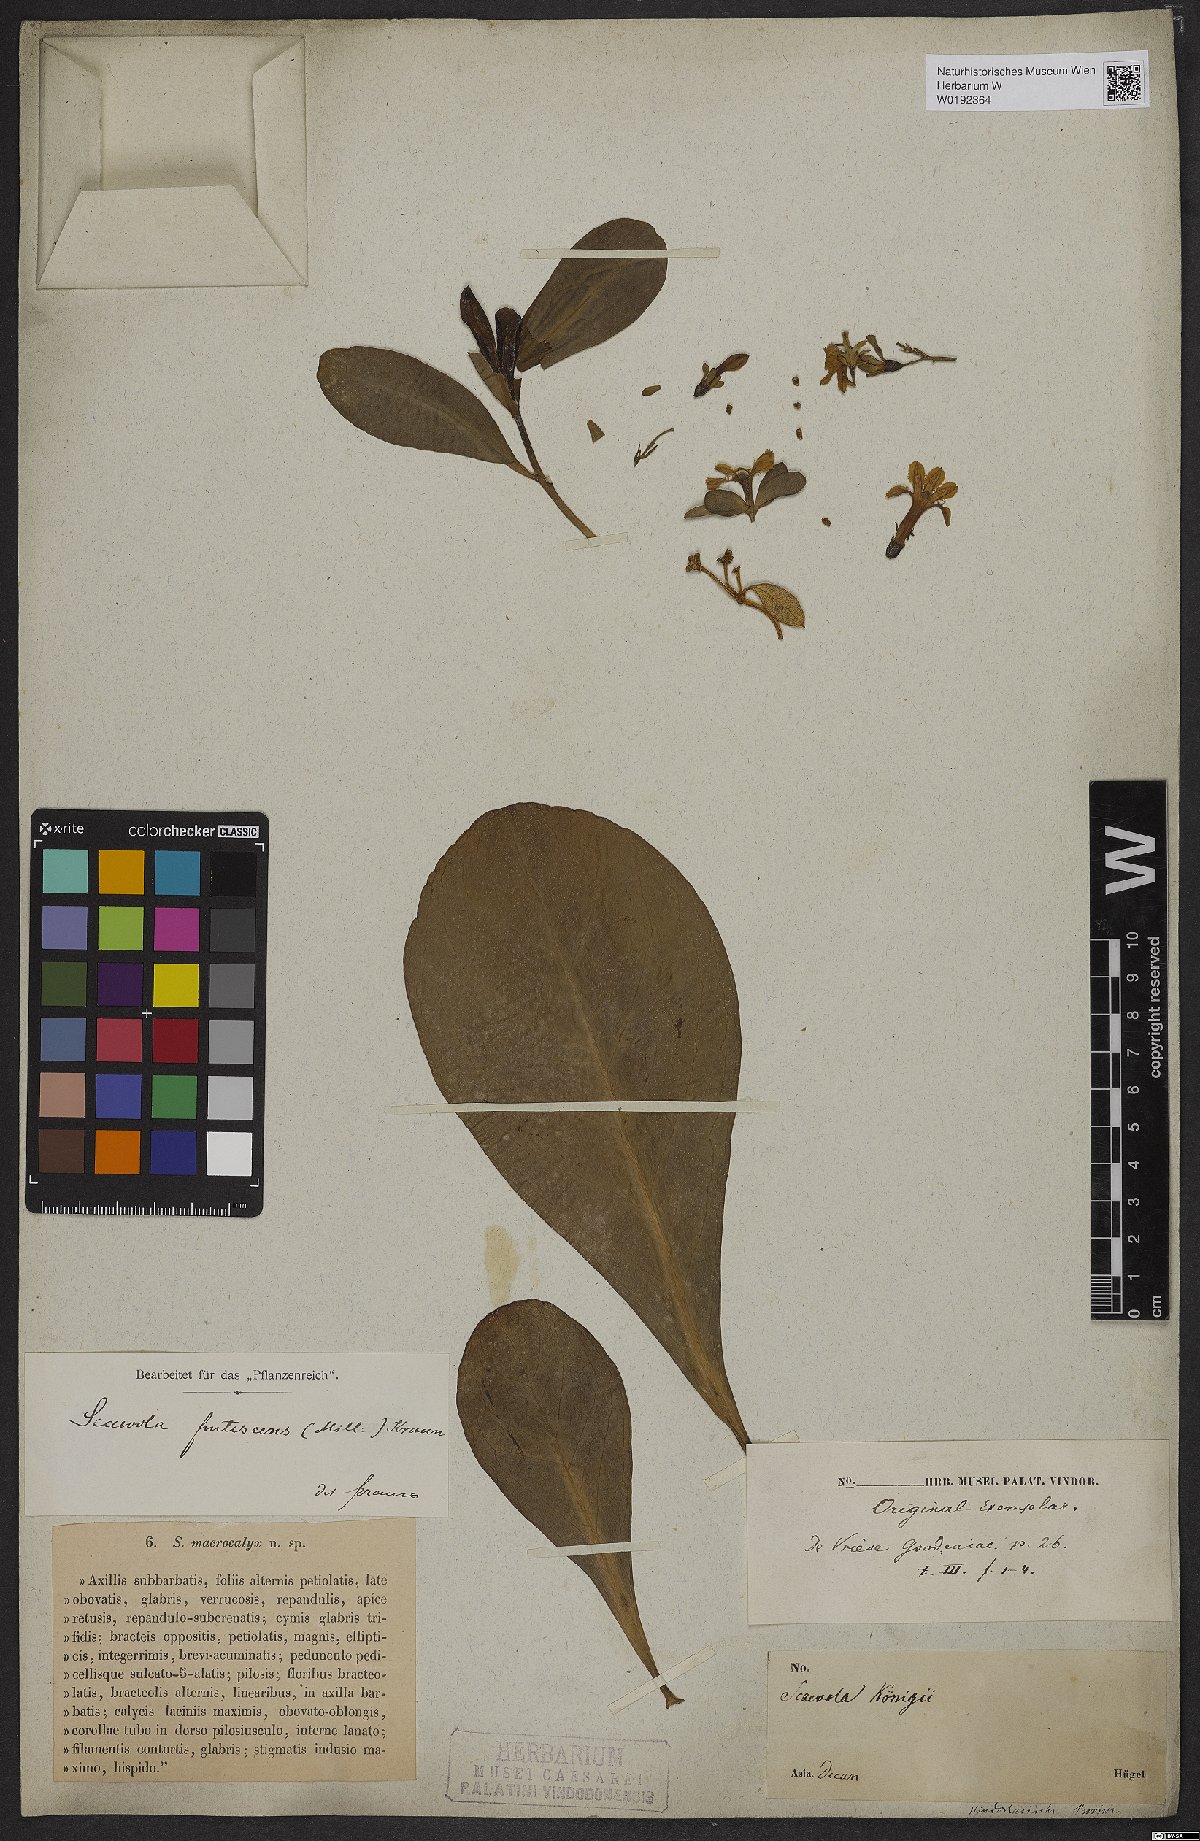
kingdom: Plantae
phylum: Tracheophyta
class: Magnoliopsida
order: Asterales
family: Goodeniaceae
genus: Scaevola
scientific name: Scaevola taccada
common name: Sea lettucetree
